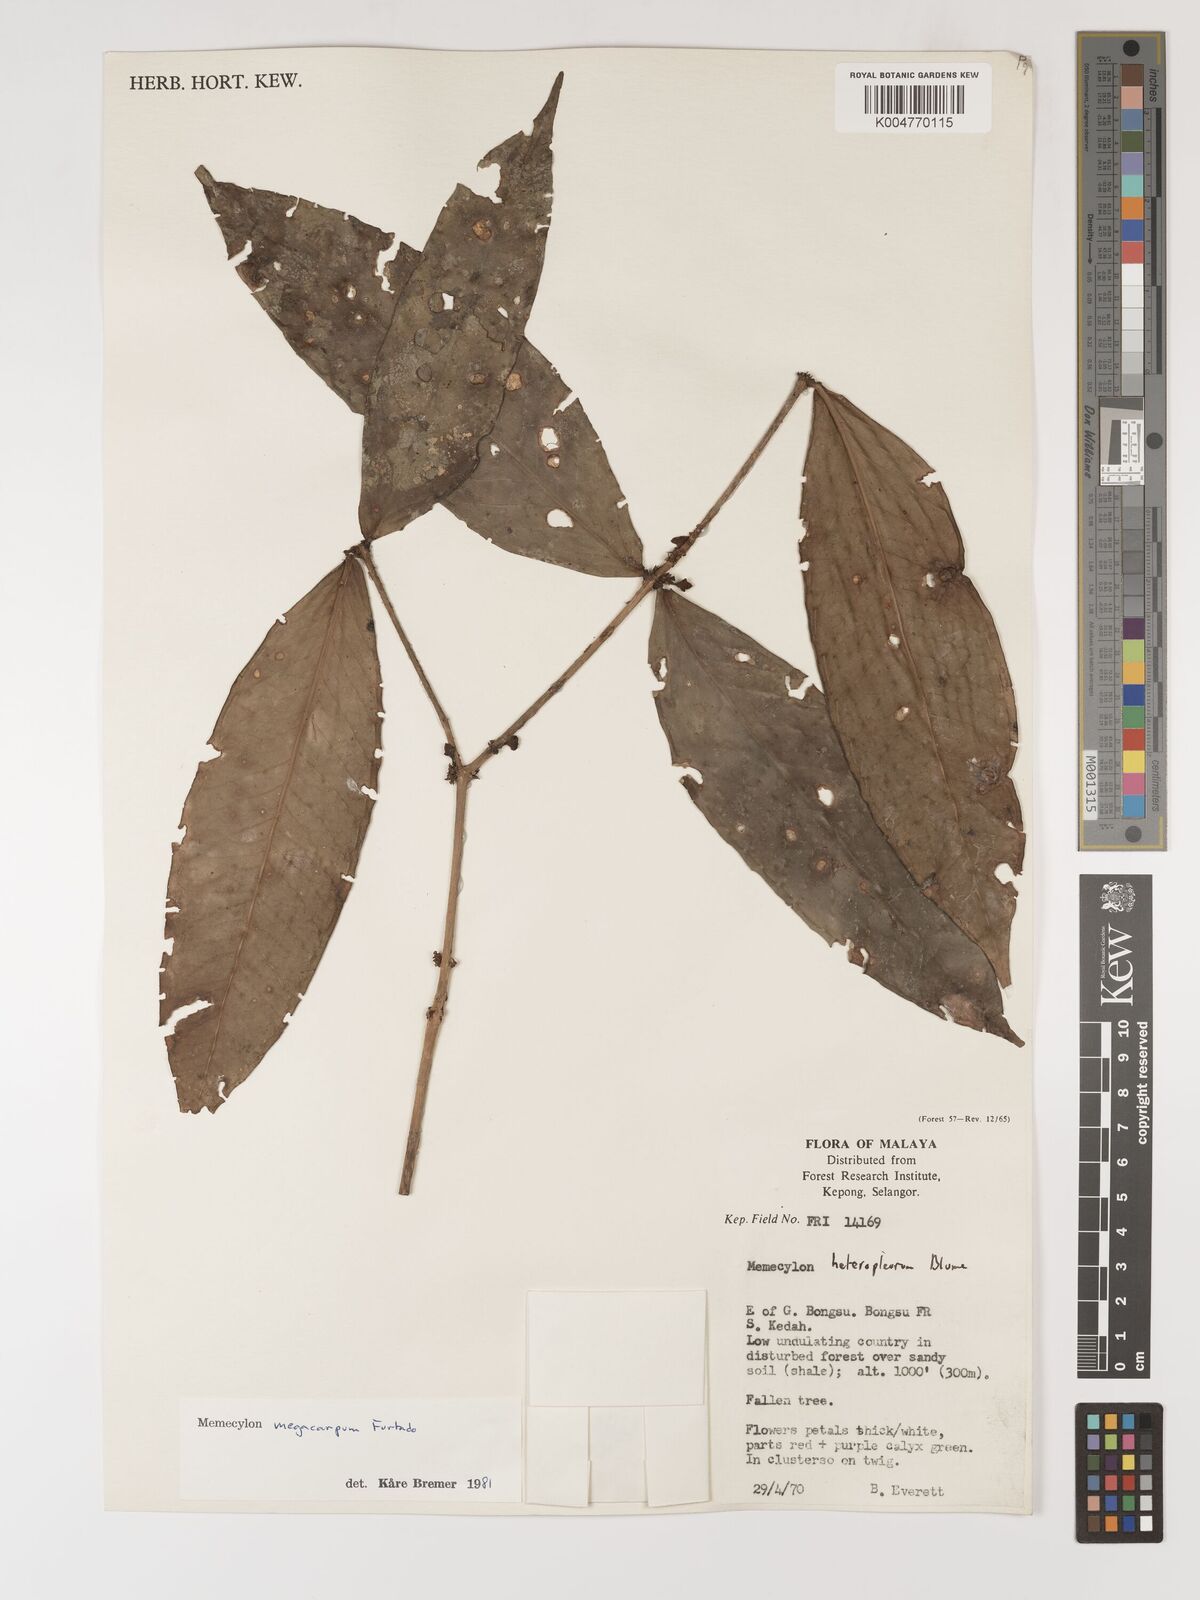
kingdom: Plantae
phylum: Tracheophyta
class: Magnoliopsida
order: Myrtales
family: Melastomataceae
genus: Memecylon
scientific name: Memecylon megacarpum
